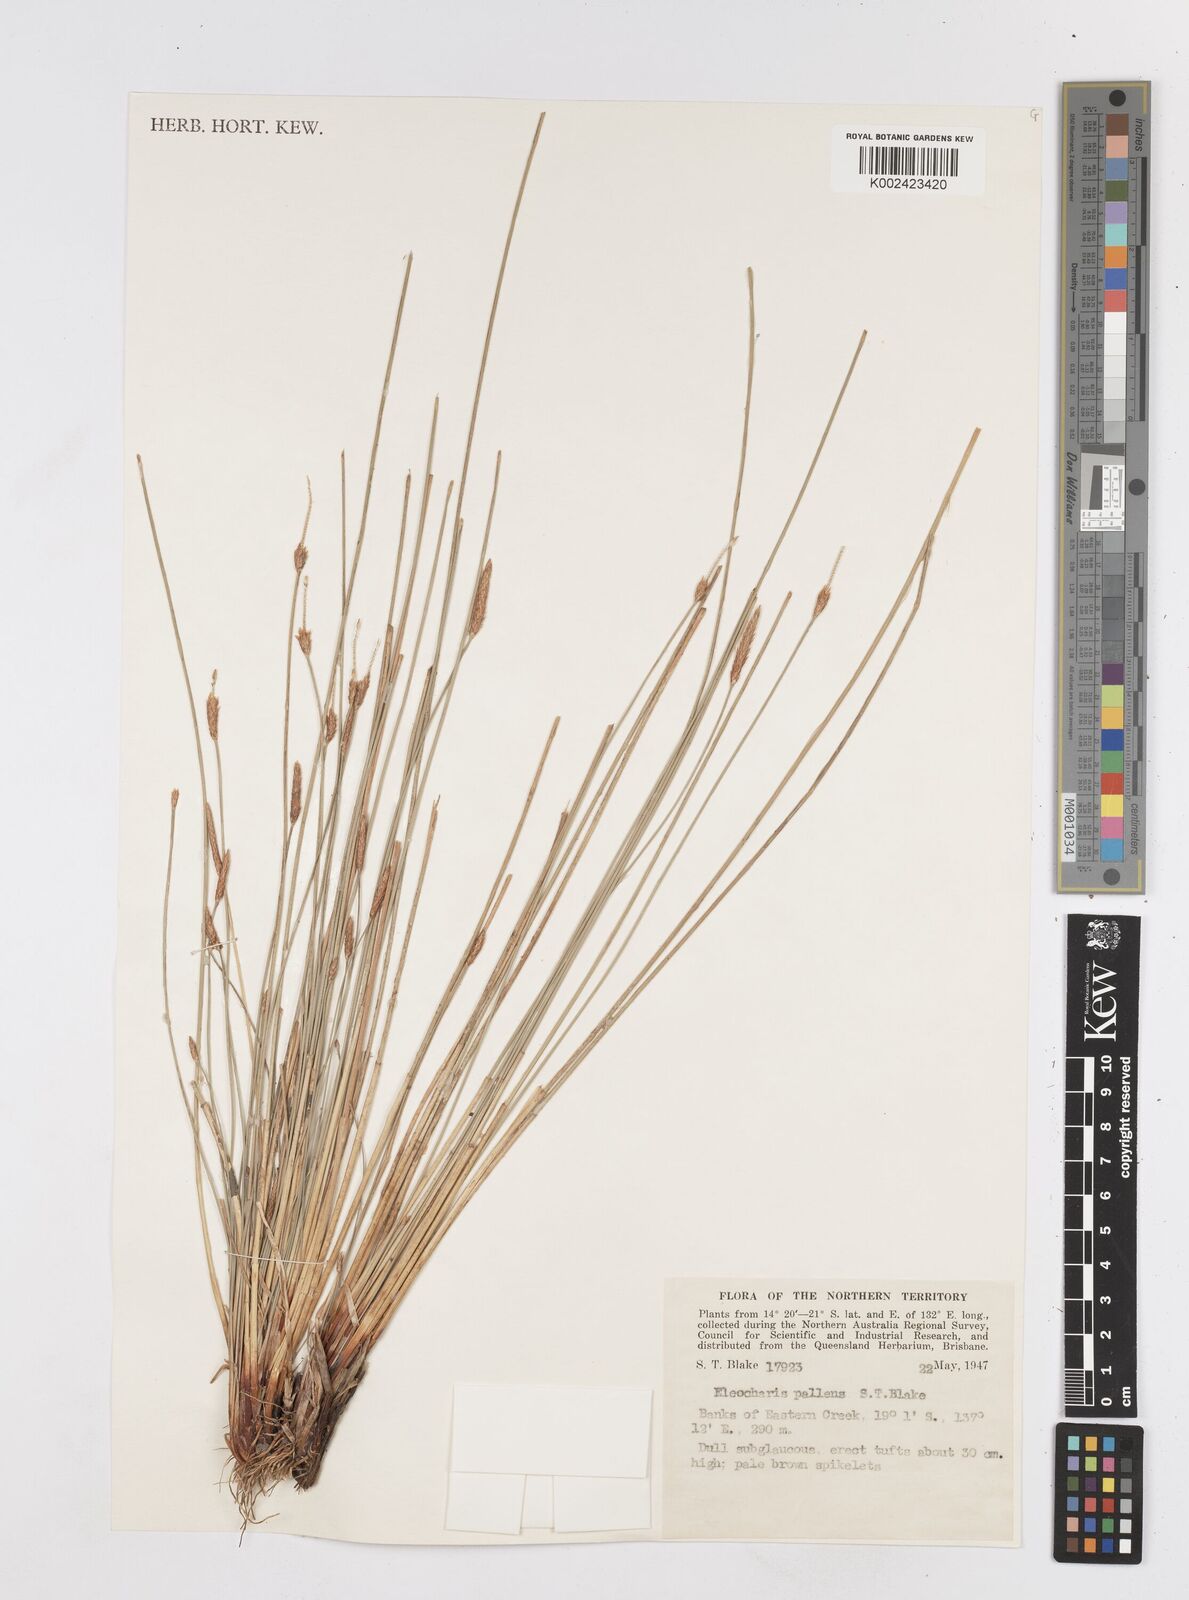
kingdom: Plantae
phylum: Tracheophyta
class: Liliopsida
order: Poales
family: Cyperaceae
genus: Eleocharis
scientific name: Eleocharis acuta
